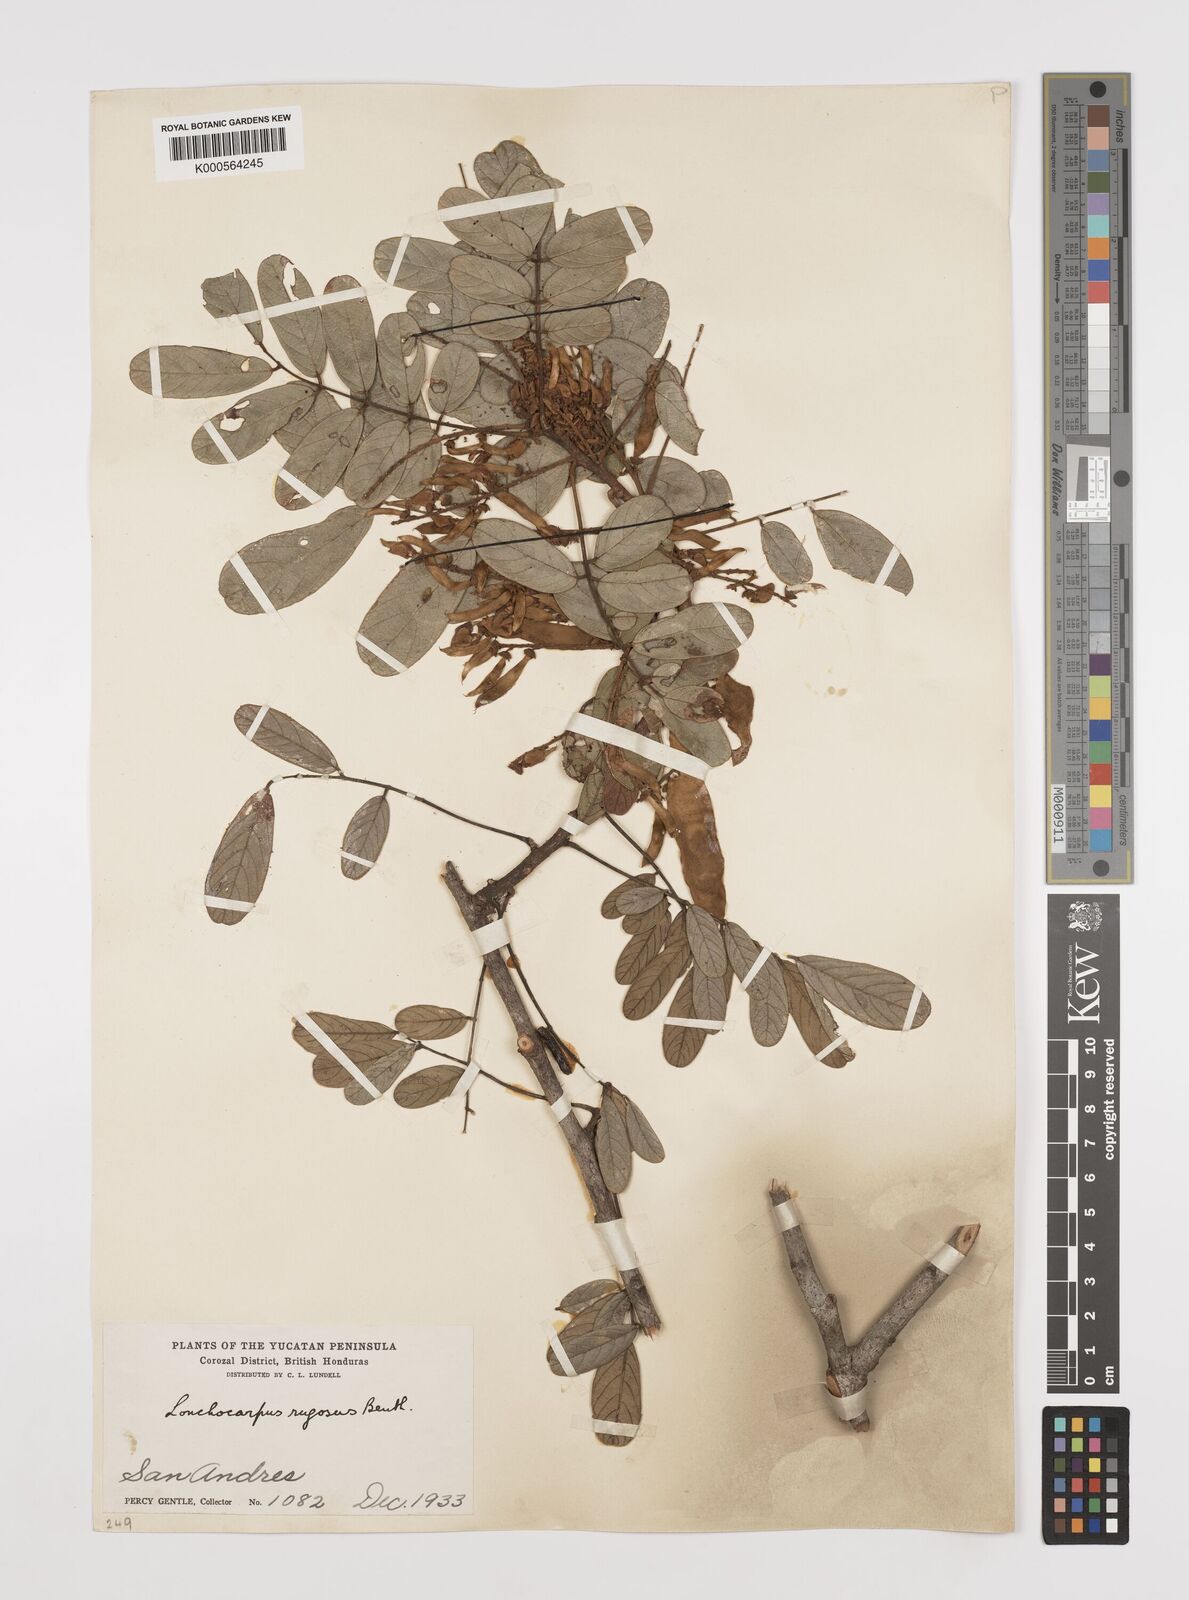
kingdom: Plantae
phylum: Tracheophyta
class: Magnoliopsida
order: Fabales
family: Fabaceae
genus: Lonchocarpus
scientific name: Lonchocarpus rugosus
